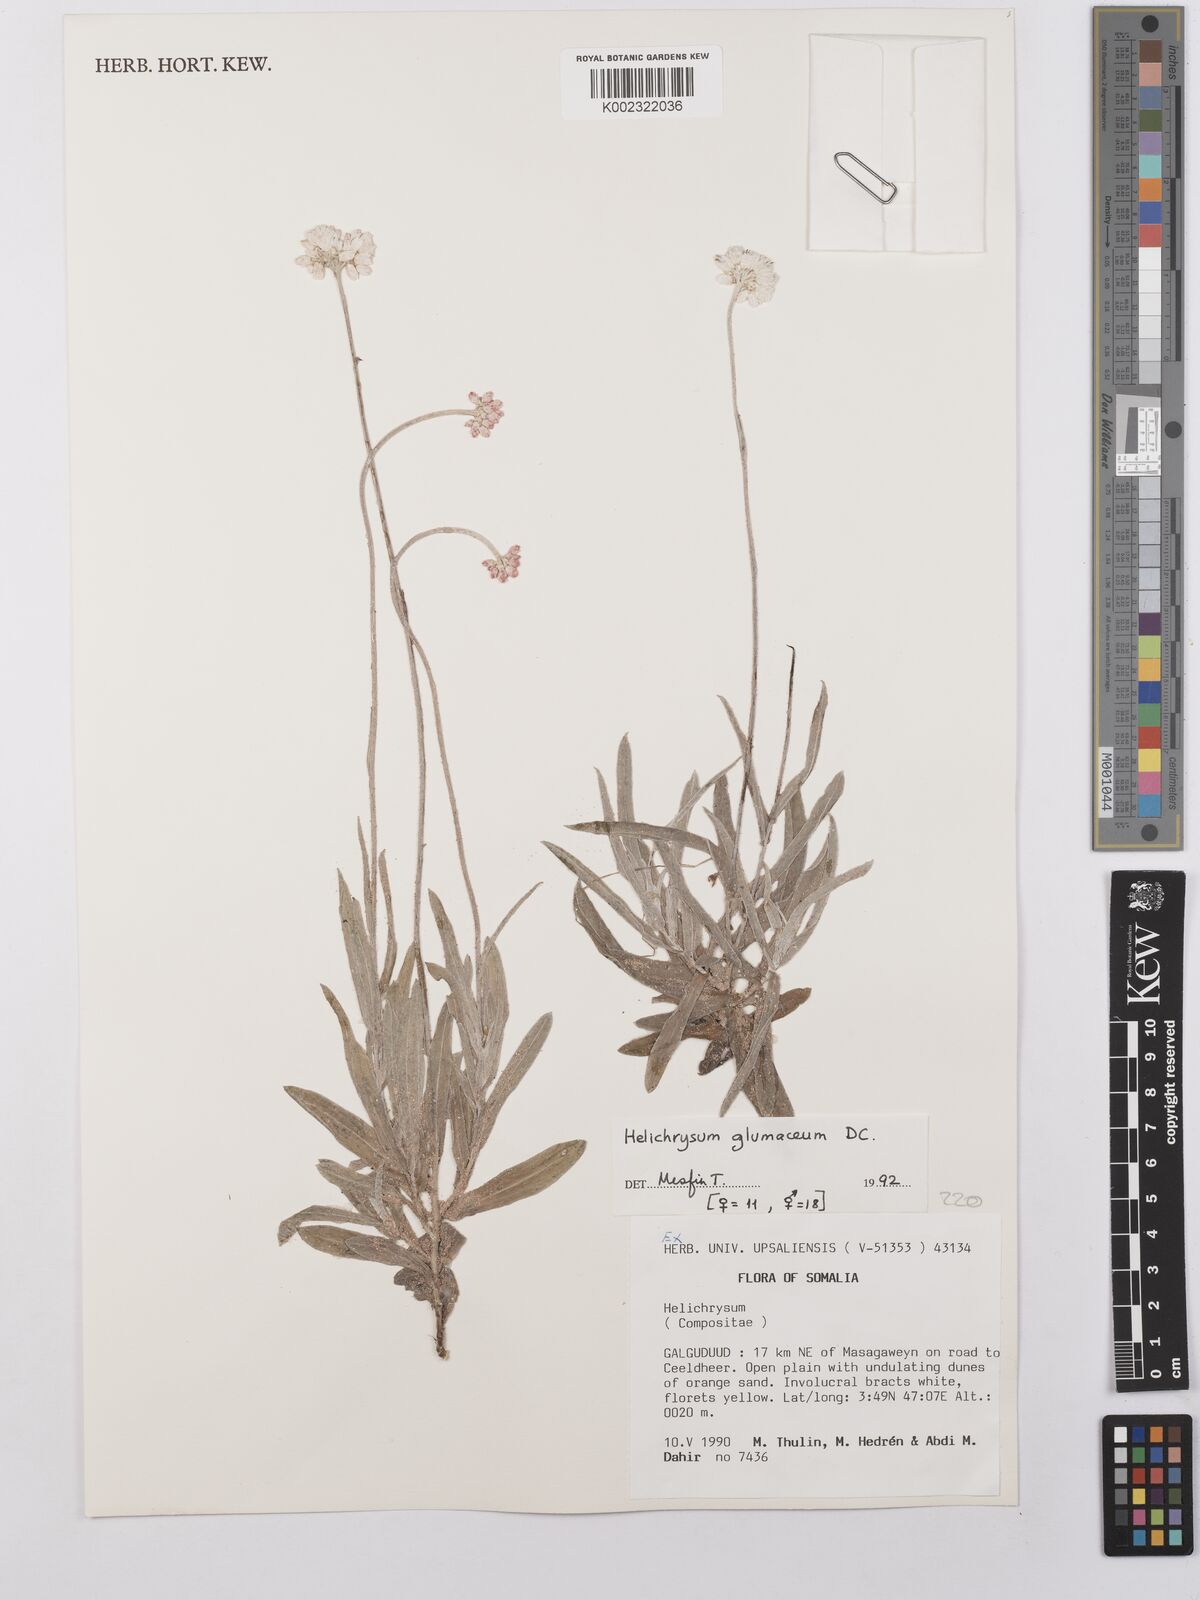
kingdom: Plantae
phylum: Tracheophyta
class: Magnoliopsida
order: Asterales
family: Asteraceae
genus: Helichrysum
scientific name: Helichrysum
